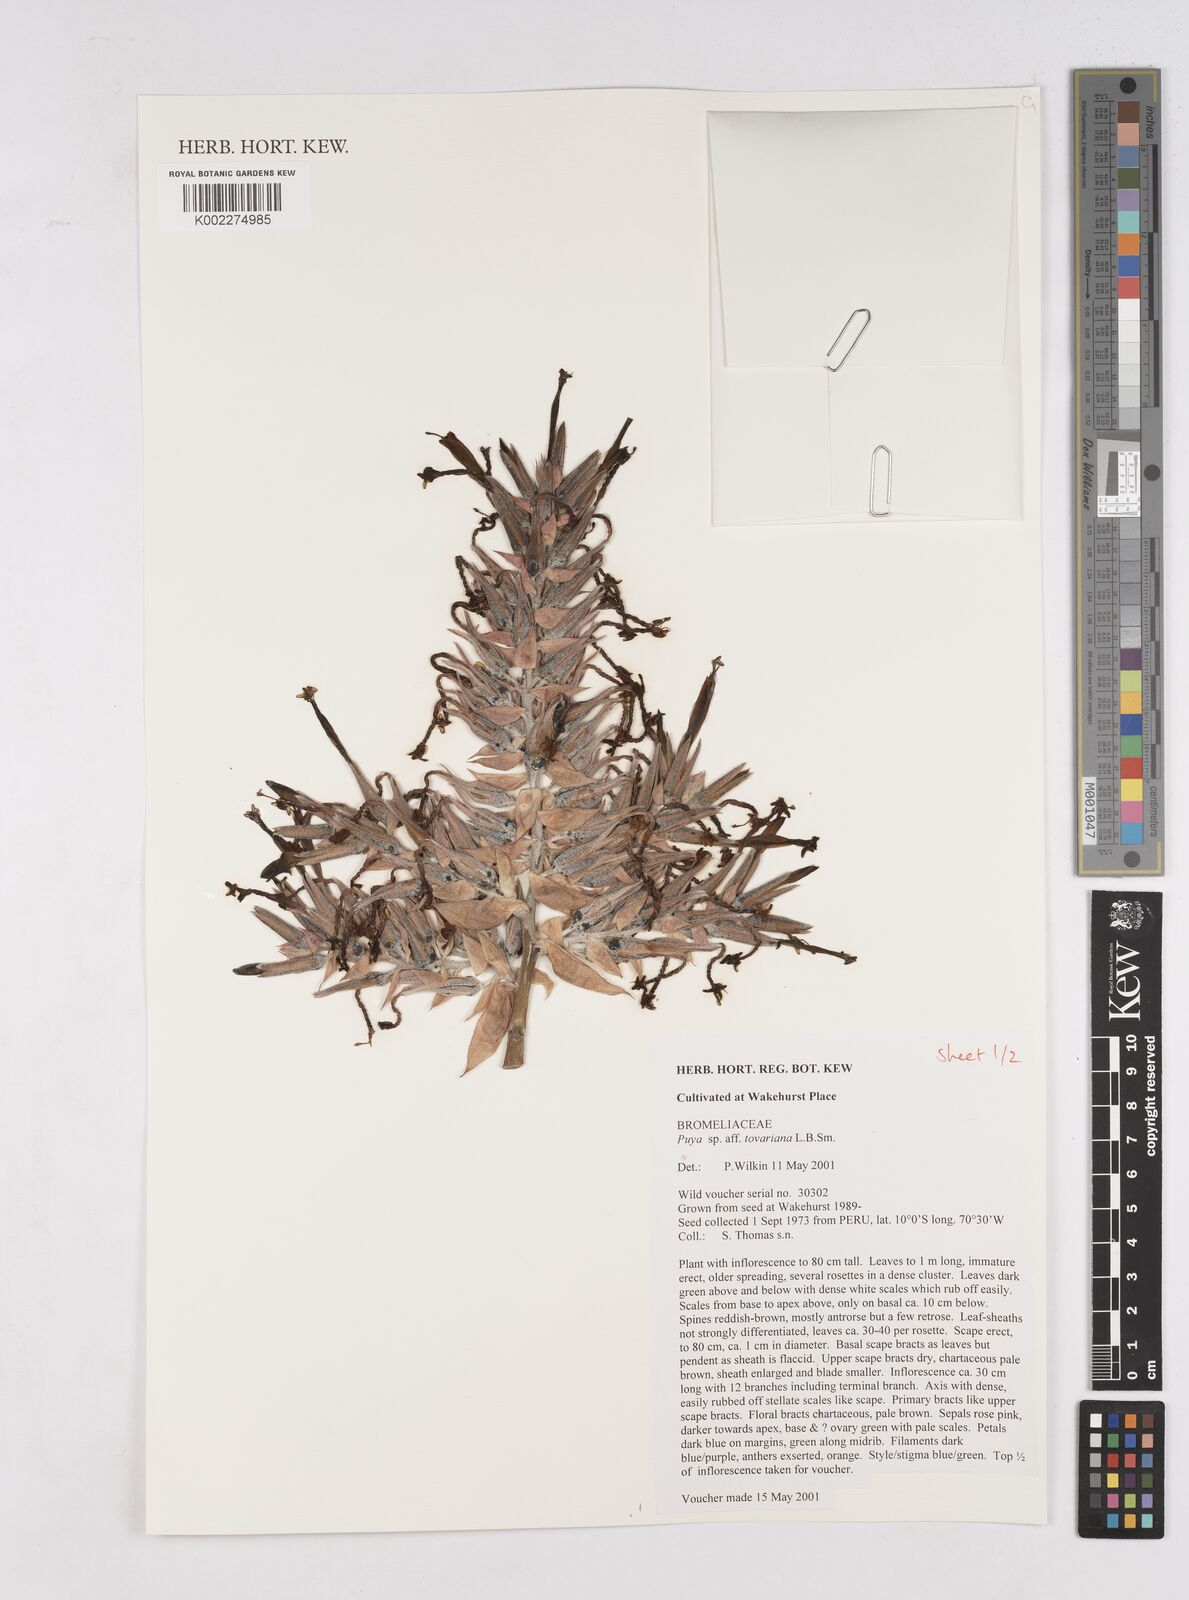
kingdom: Plantae
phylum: Tracheophyta
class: Liliopsida
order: Poales
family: Bromeliaceae
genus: Puya
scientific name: Puya tovariana
